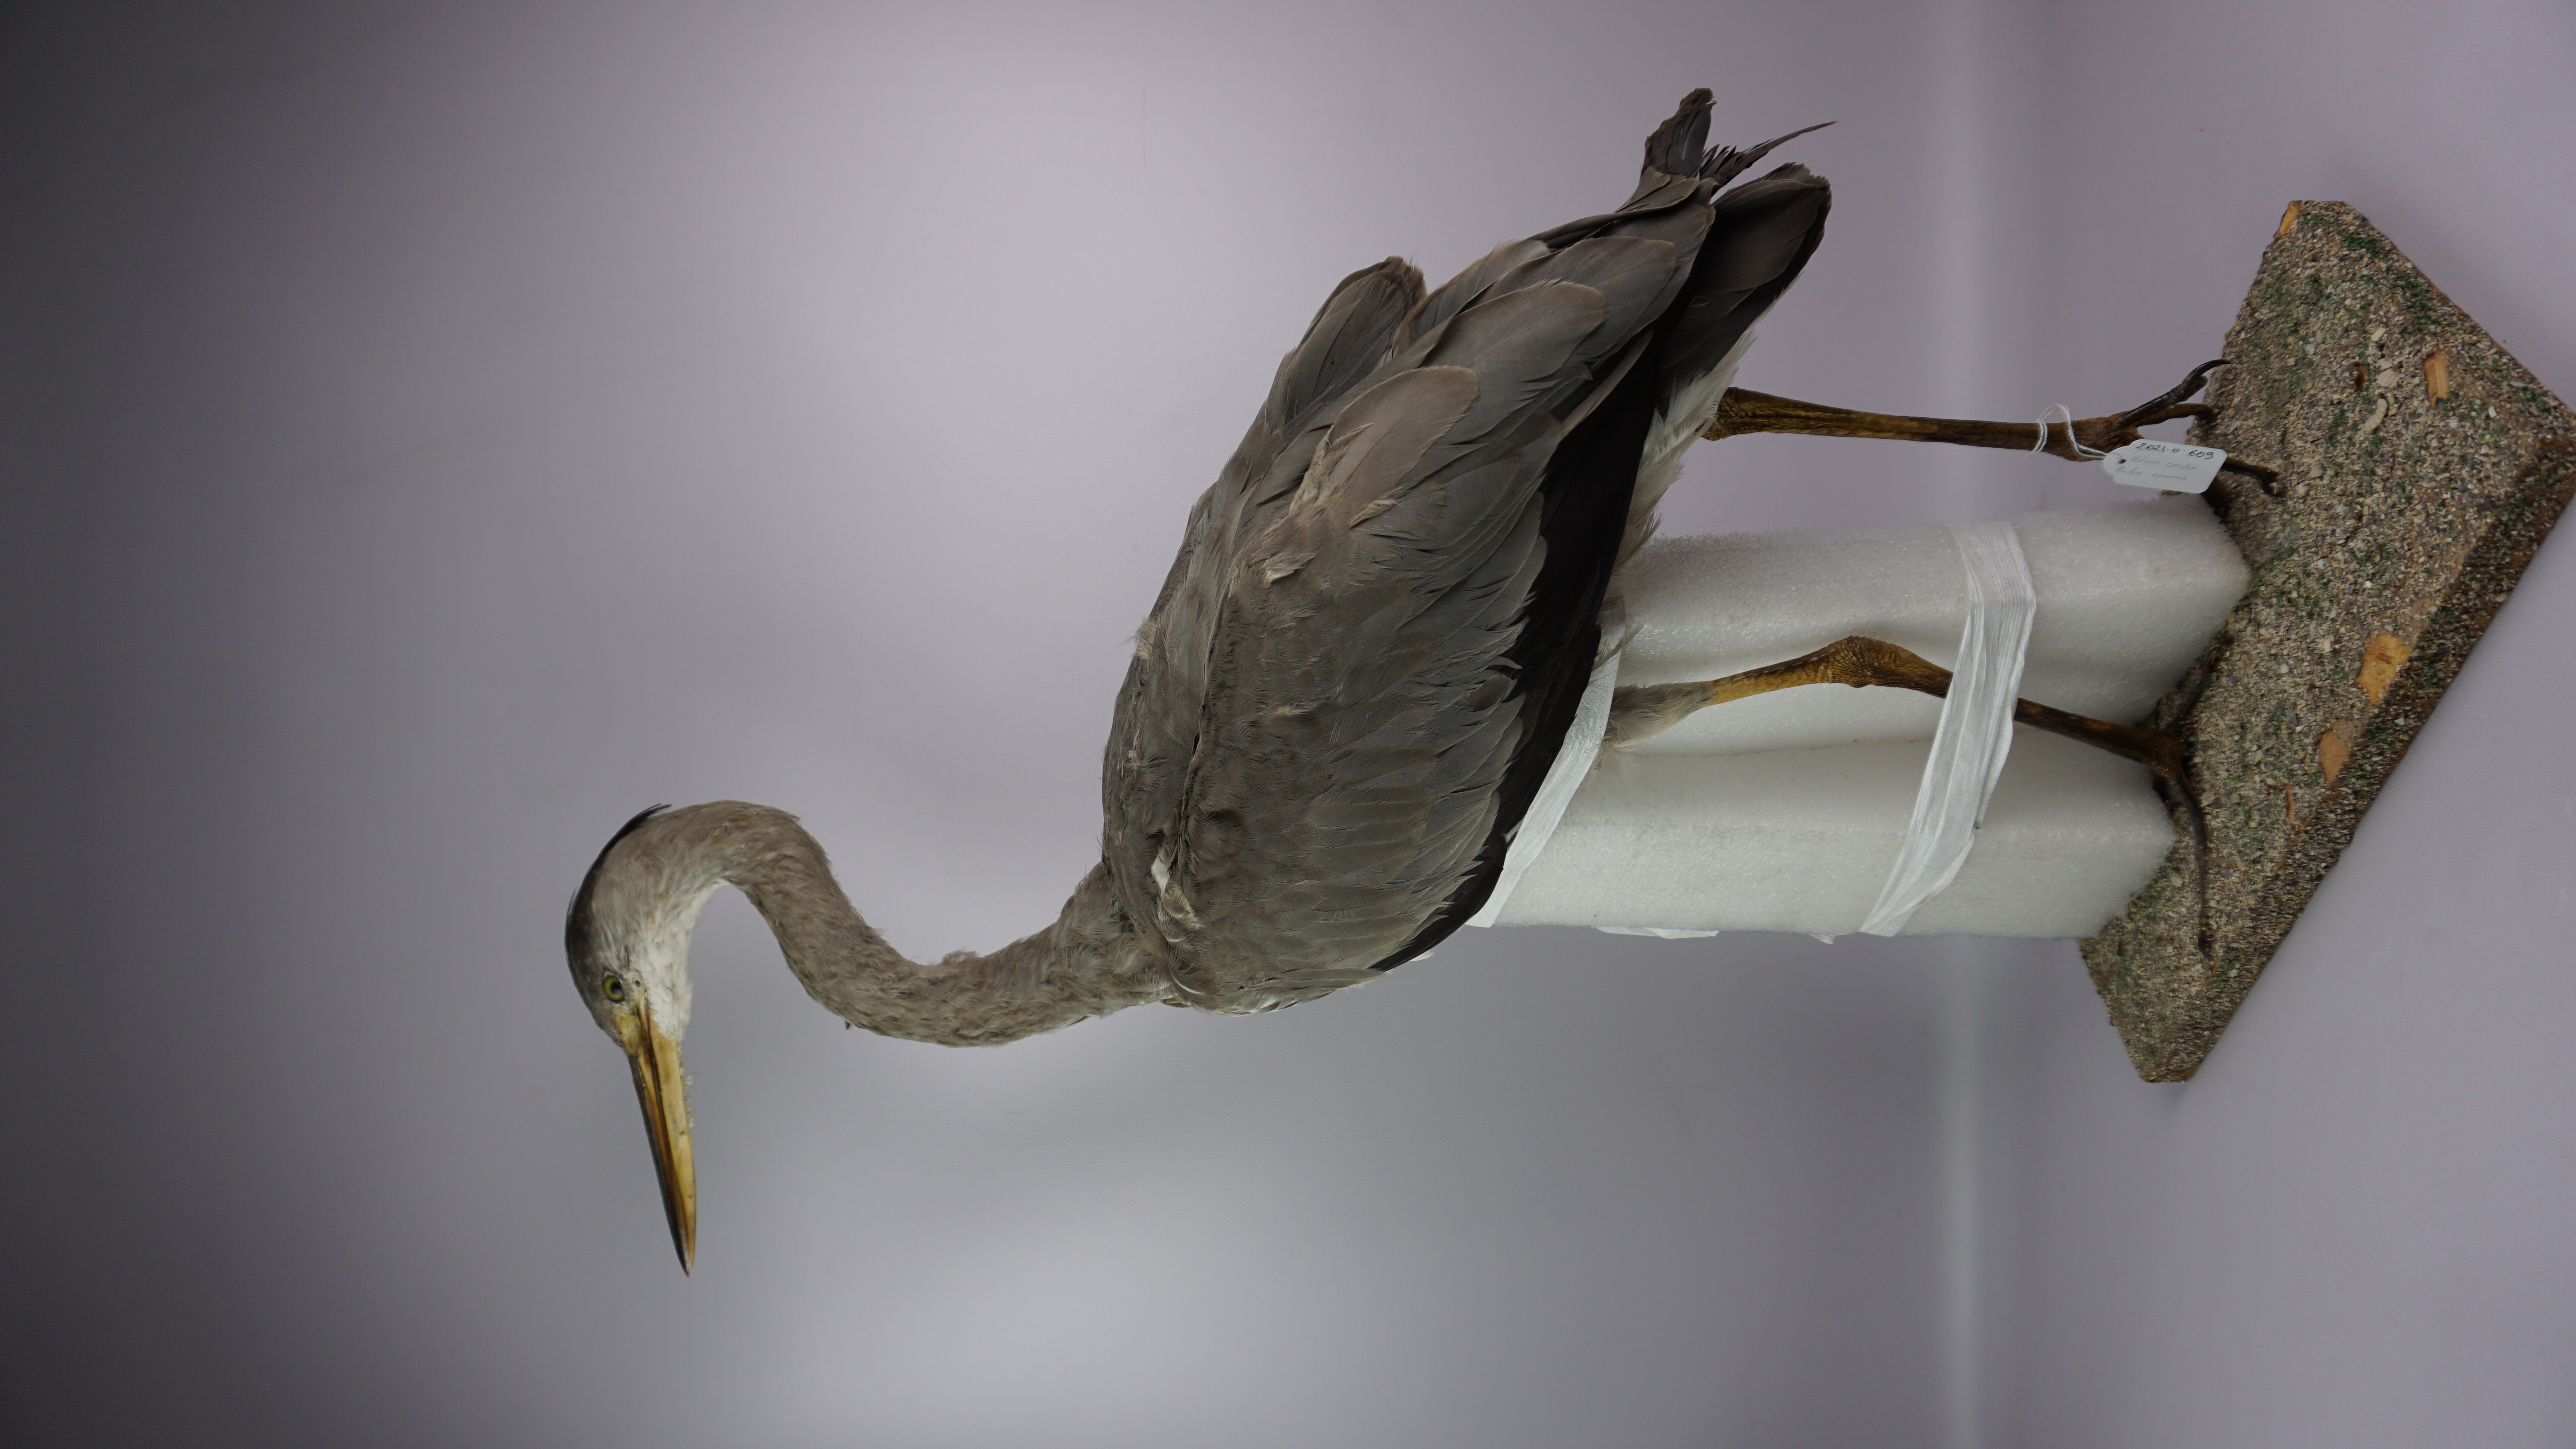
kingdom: Animalia
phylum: Chordata
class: Aves
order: Pelecaniformes
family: Ardeidae
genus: Ardea
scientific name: Ardea cinerea
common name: Grey heron
